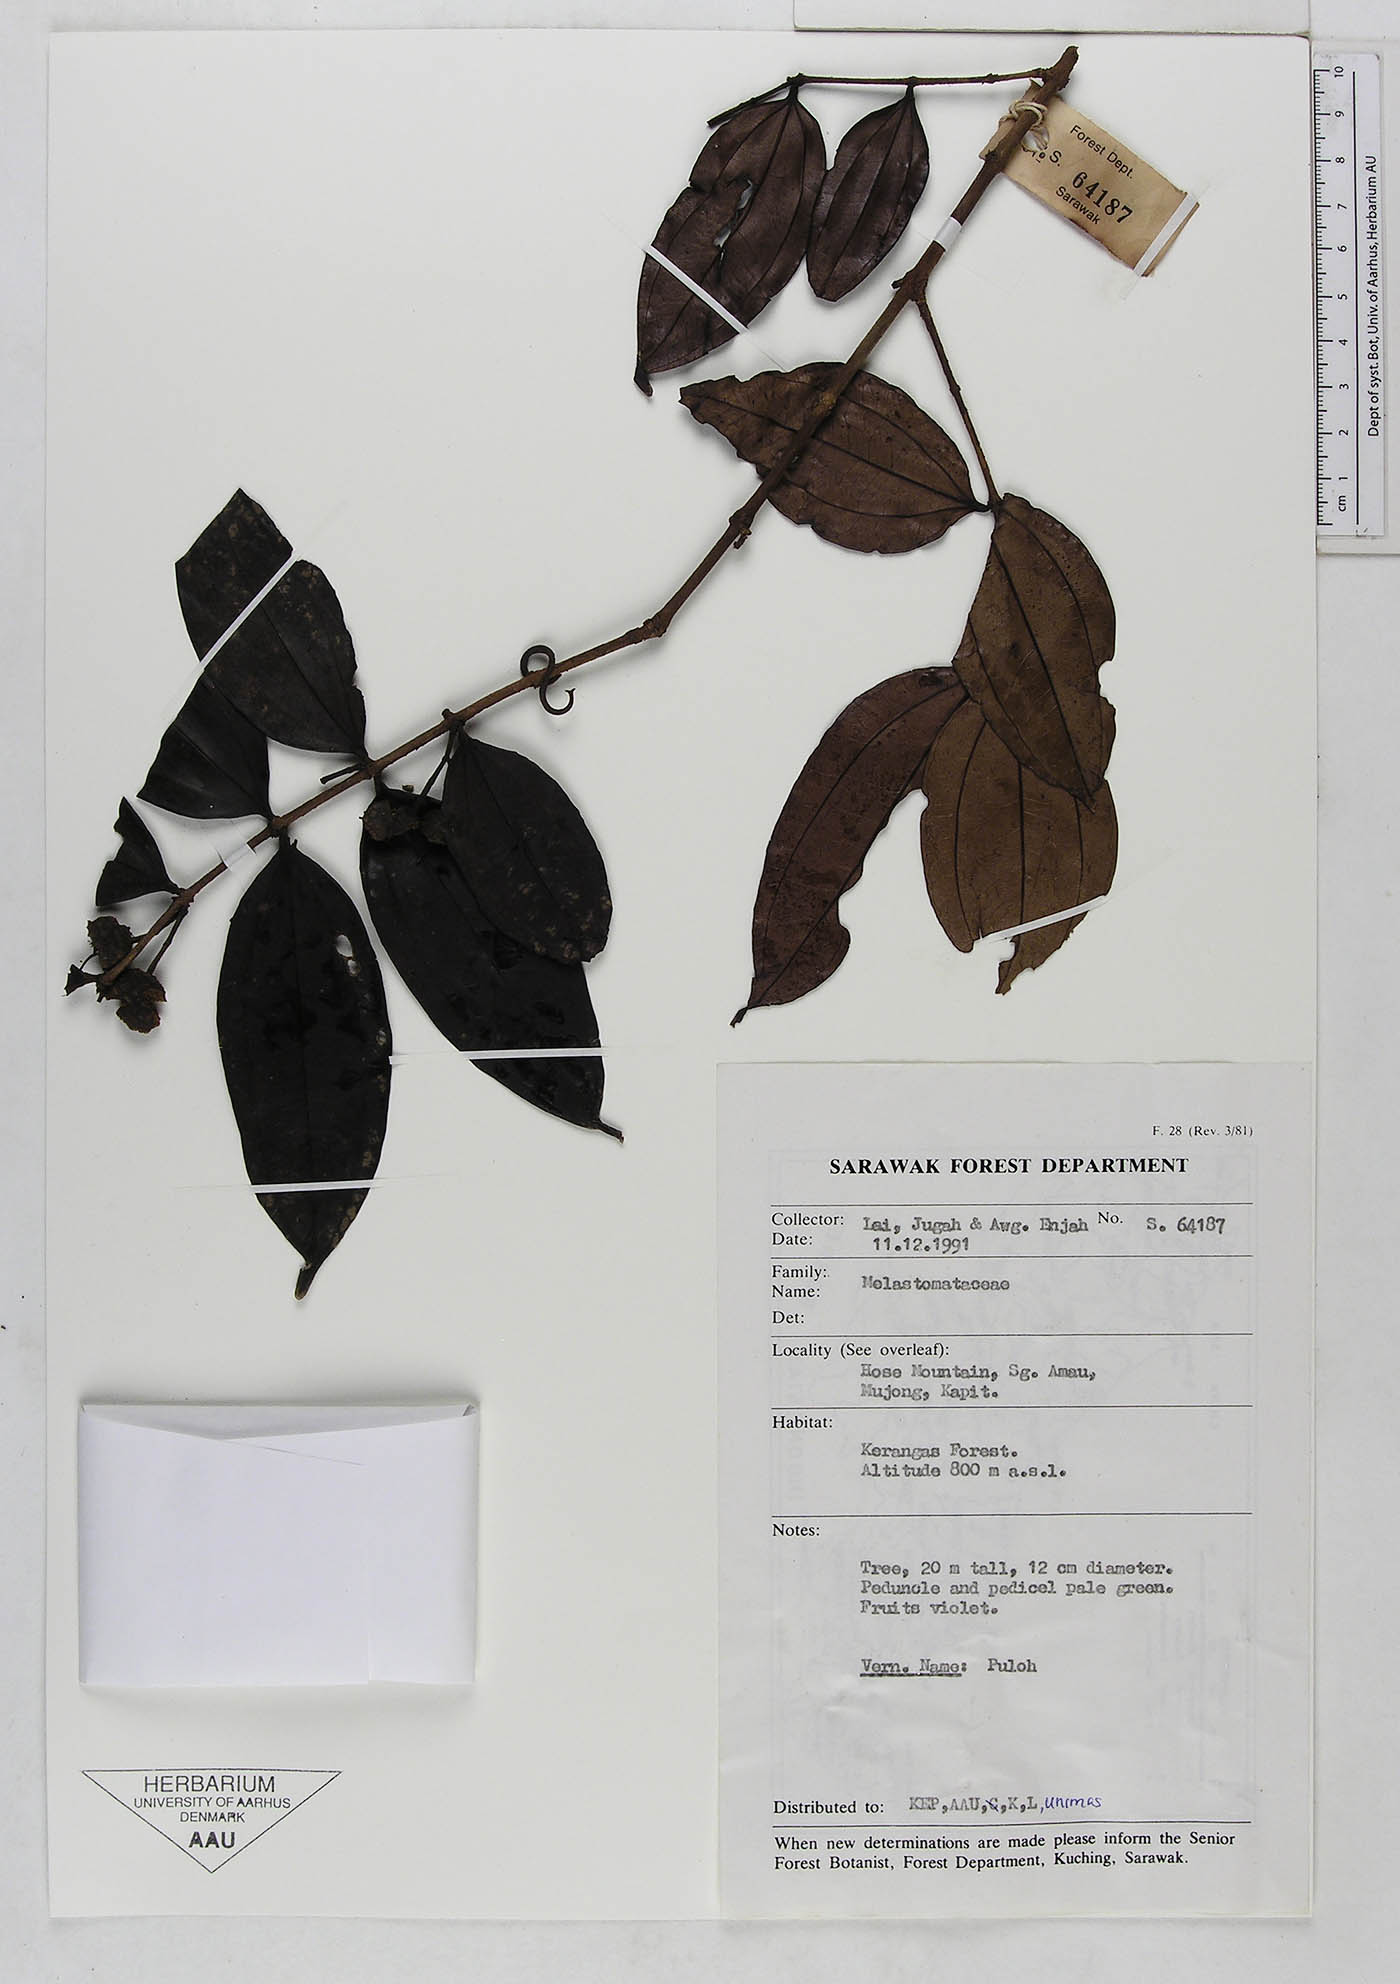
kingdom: Plantae
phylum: Tracheophyta
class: Magnoliopsida
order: Myrtales
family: Melastomataceae
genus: Pternandra
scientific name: Pternandra
